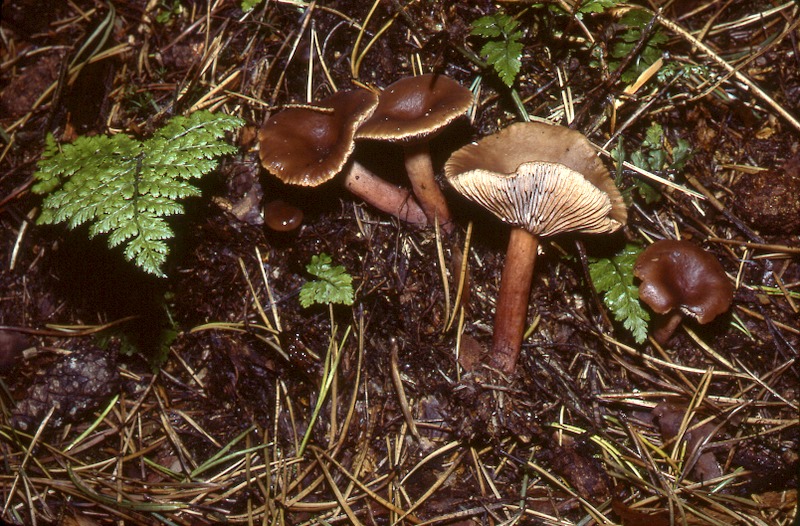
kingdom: Fungi
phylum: Basidiomycota
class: Agaricomycetes
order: Russulales
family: Russulaceae
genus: Lactarius
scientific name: Lactarius hepaticus
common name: Liver milkcap
